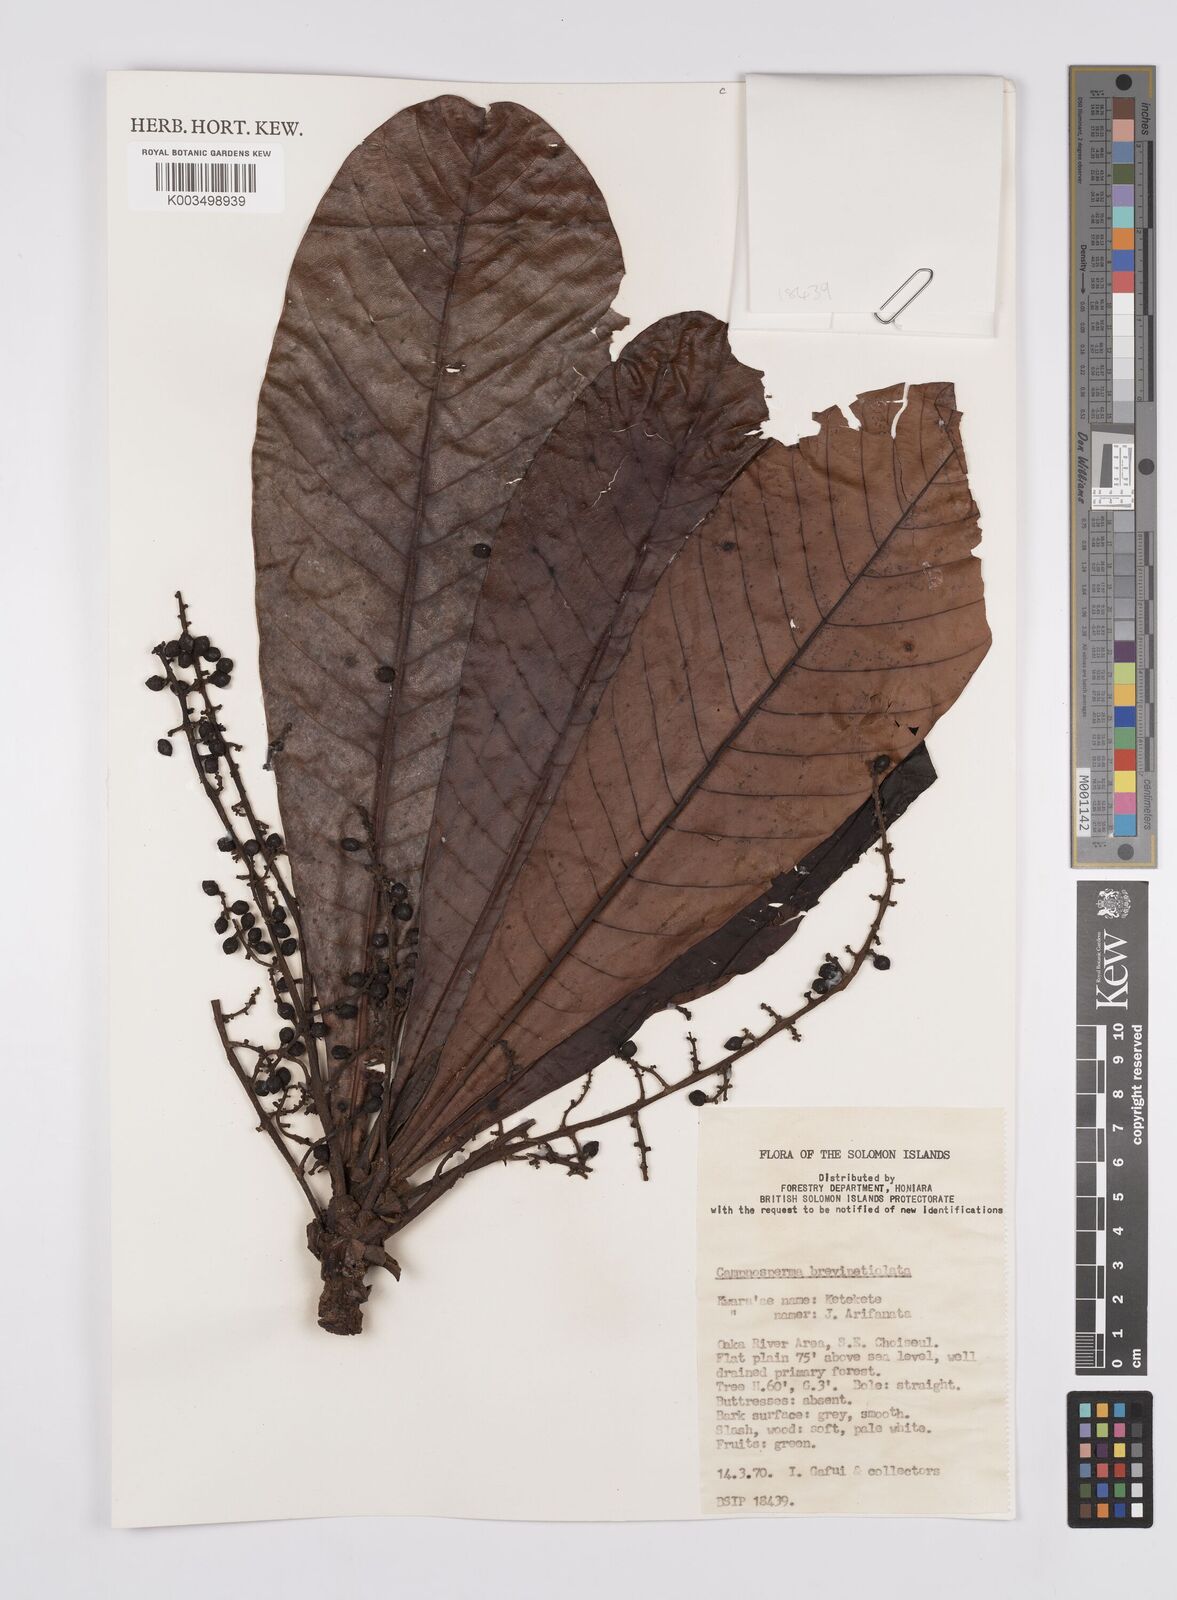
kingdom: Plantae
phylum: Tracheophyta
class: Magnoliopsida
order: Sapindales
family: Anacardiaceae
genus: Campnosperma
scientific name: Campnosperma brevipetiolatum
